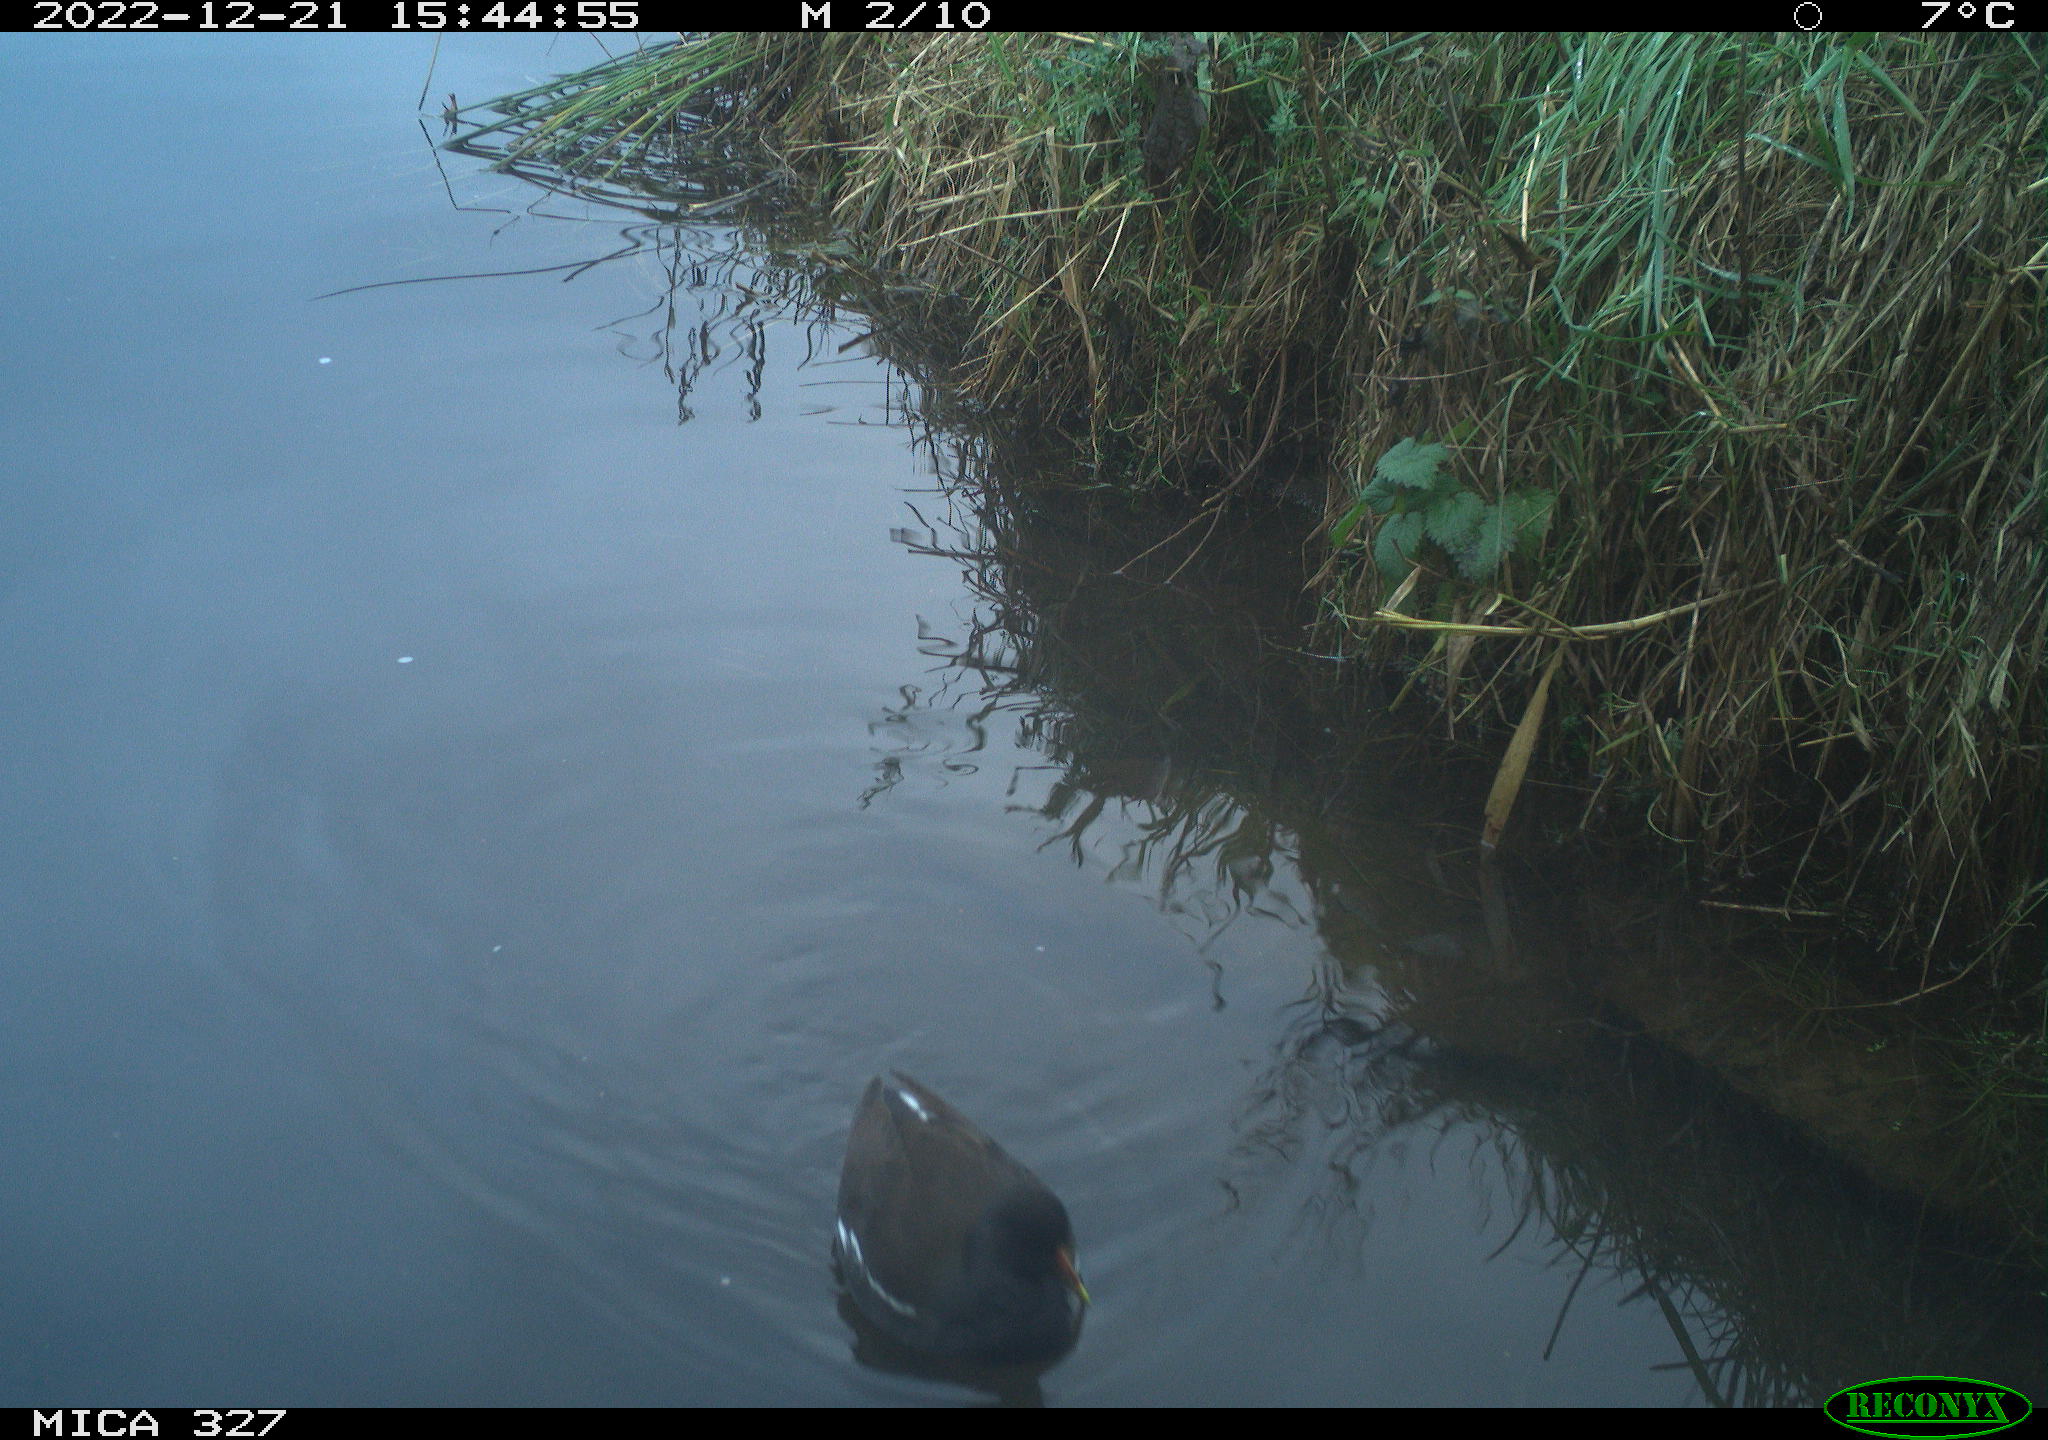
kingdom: Animalia
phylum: Chordata
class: Aves
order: Gruiformes
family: Rallidae
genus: Gallinula
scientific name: Gallinula chloropus
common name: Common moorhen
